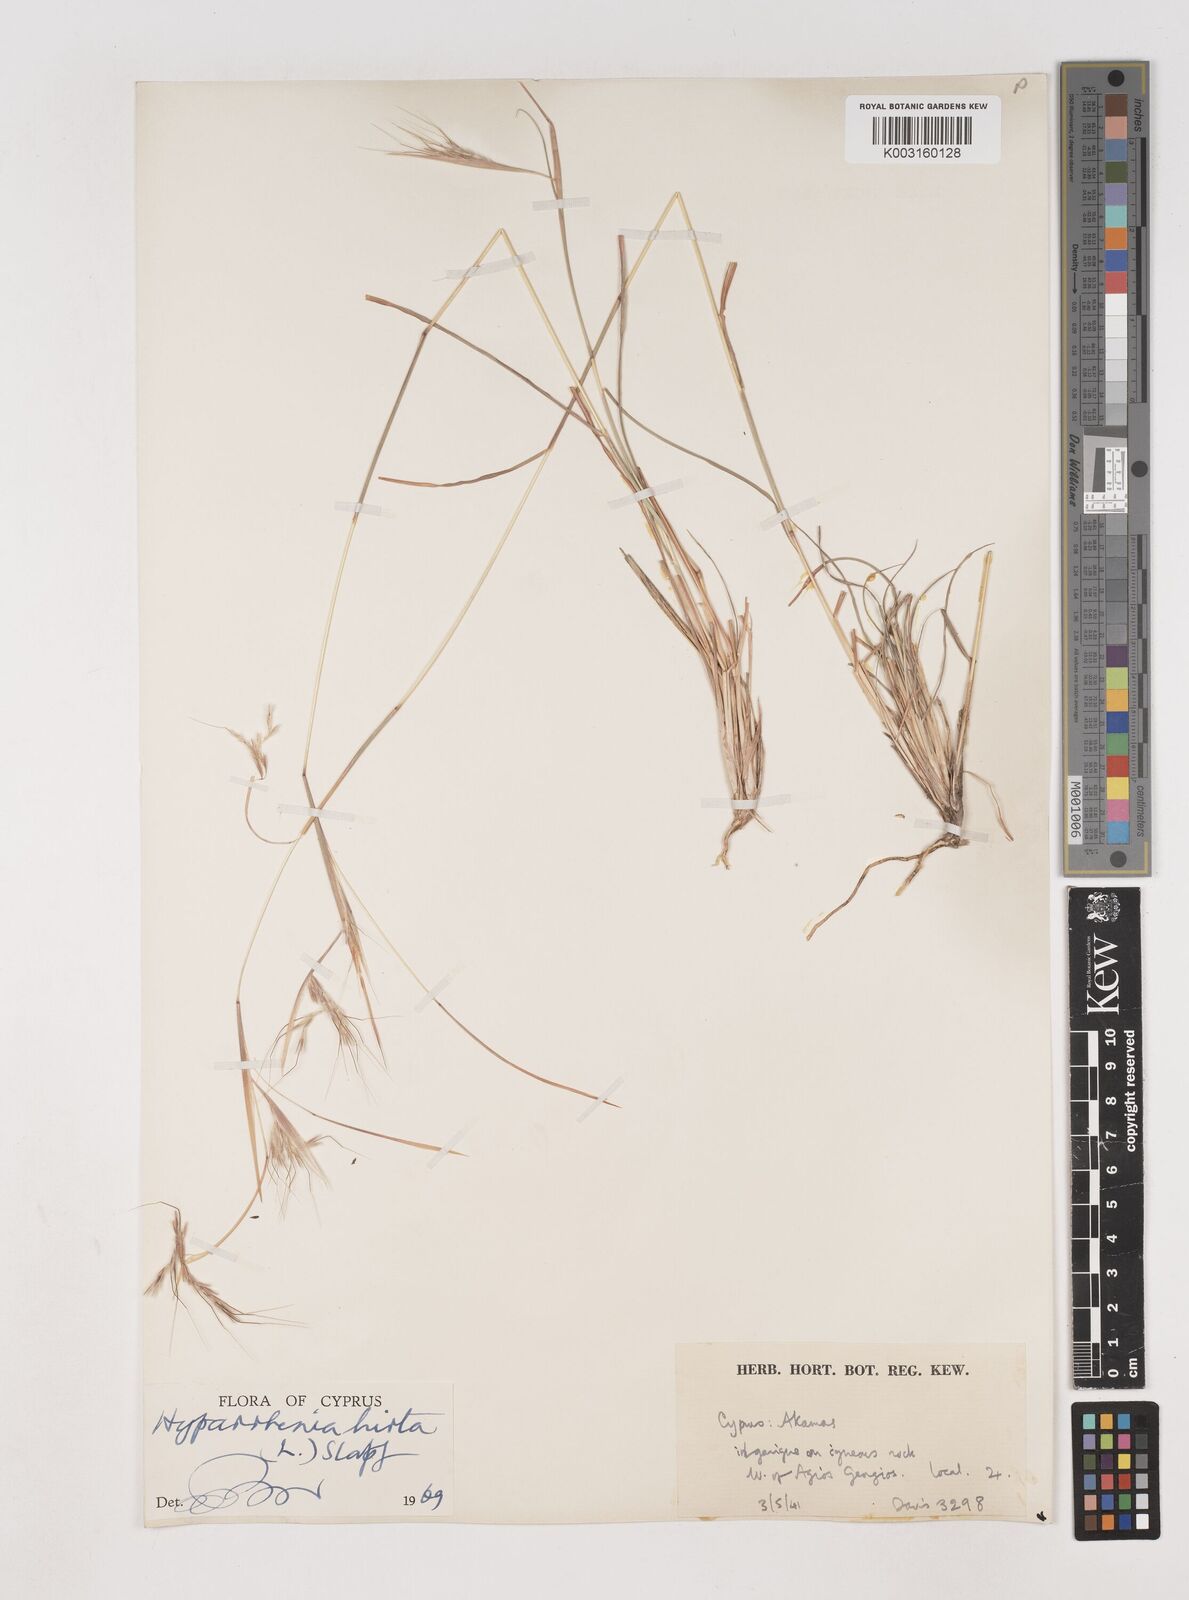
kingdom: Plantae
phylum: Tracheophyta
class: Liliopsida
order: Poales
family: Poaceae
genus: Hyparrhenia
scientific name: Hyparrhenia hirta
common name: Thatching grass
